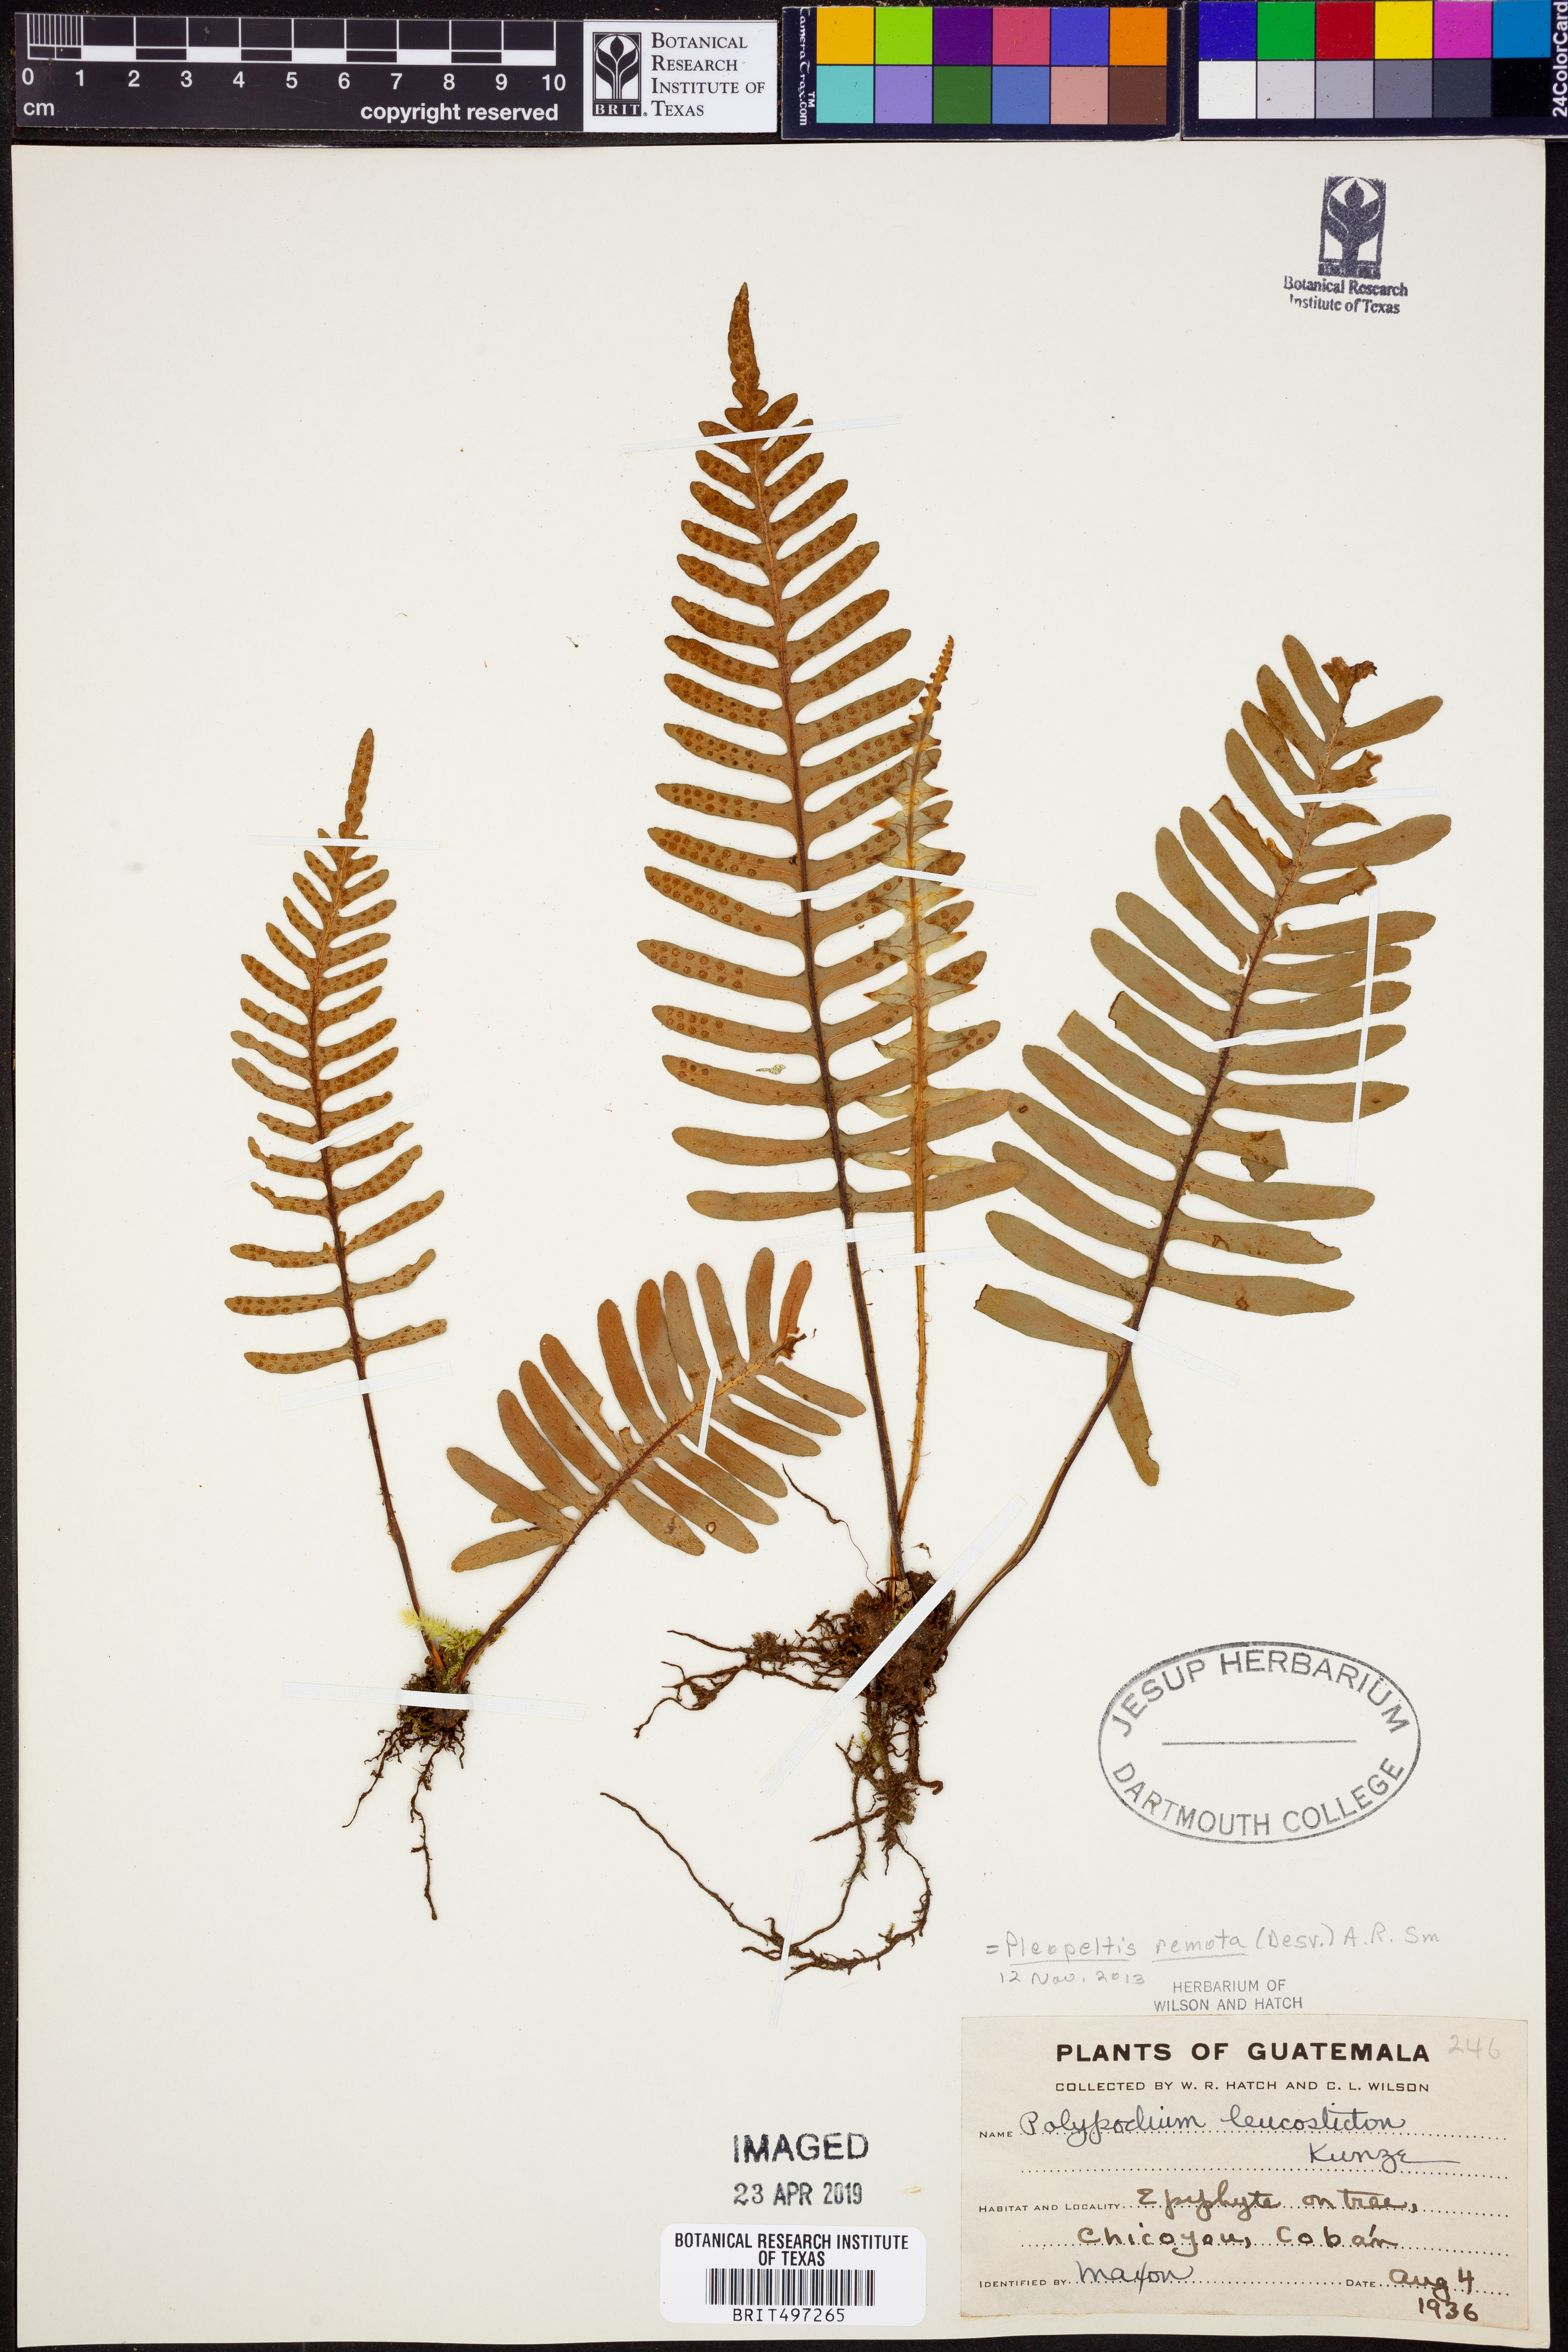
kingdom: Plantae
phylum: Tracheophyta
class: Polypodiopsida
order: Polypodiales
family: Polypodiaceae
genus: Pleopeltis
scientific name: Pleopeltis remota
